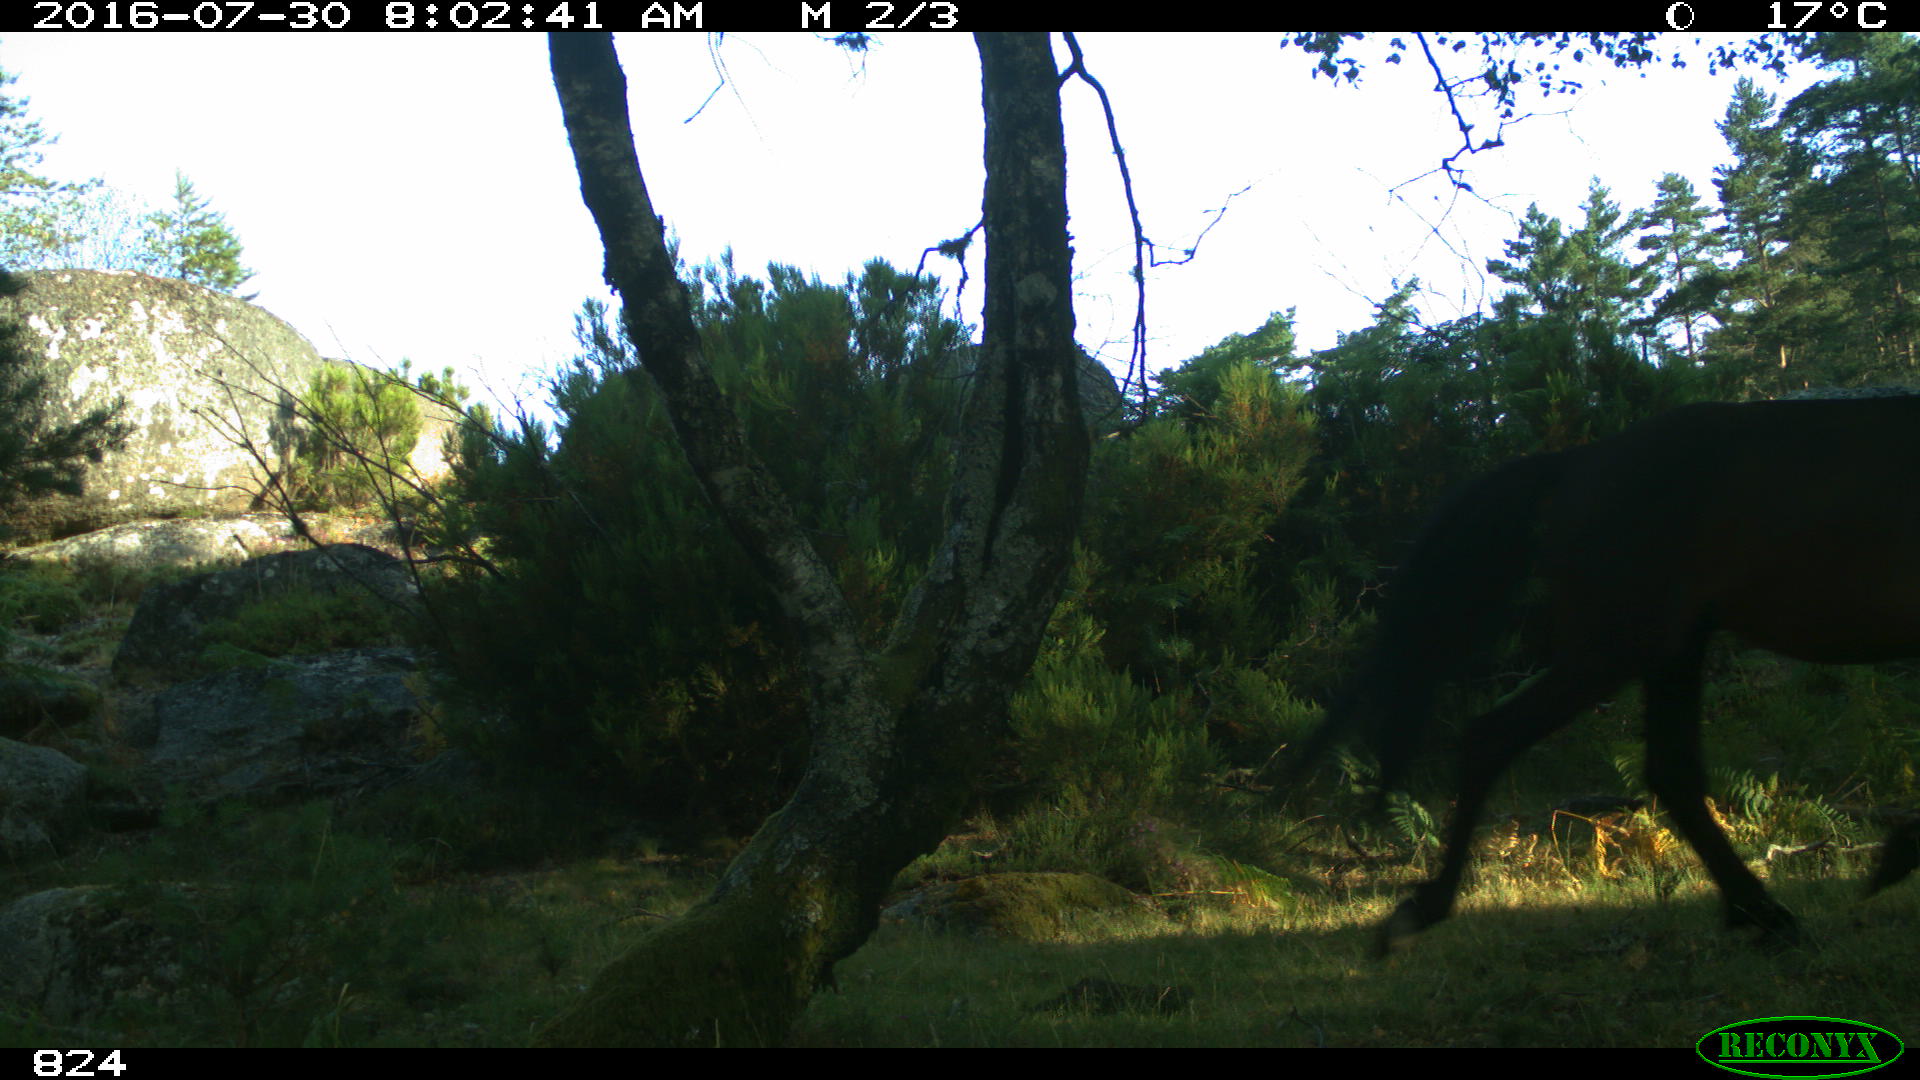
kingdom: Animalia
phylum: Chordata
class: Mammalia
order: Perissodactyla
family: Equidae
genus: Equus
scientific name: Equus caballus
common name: Horse
